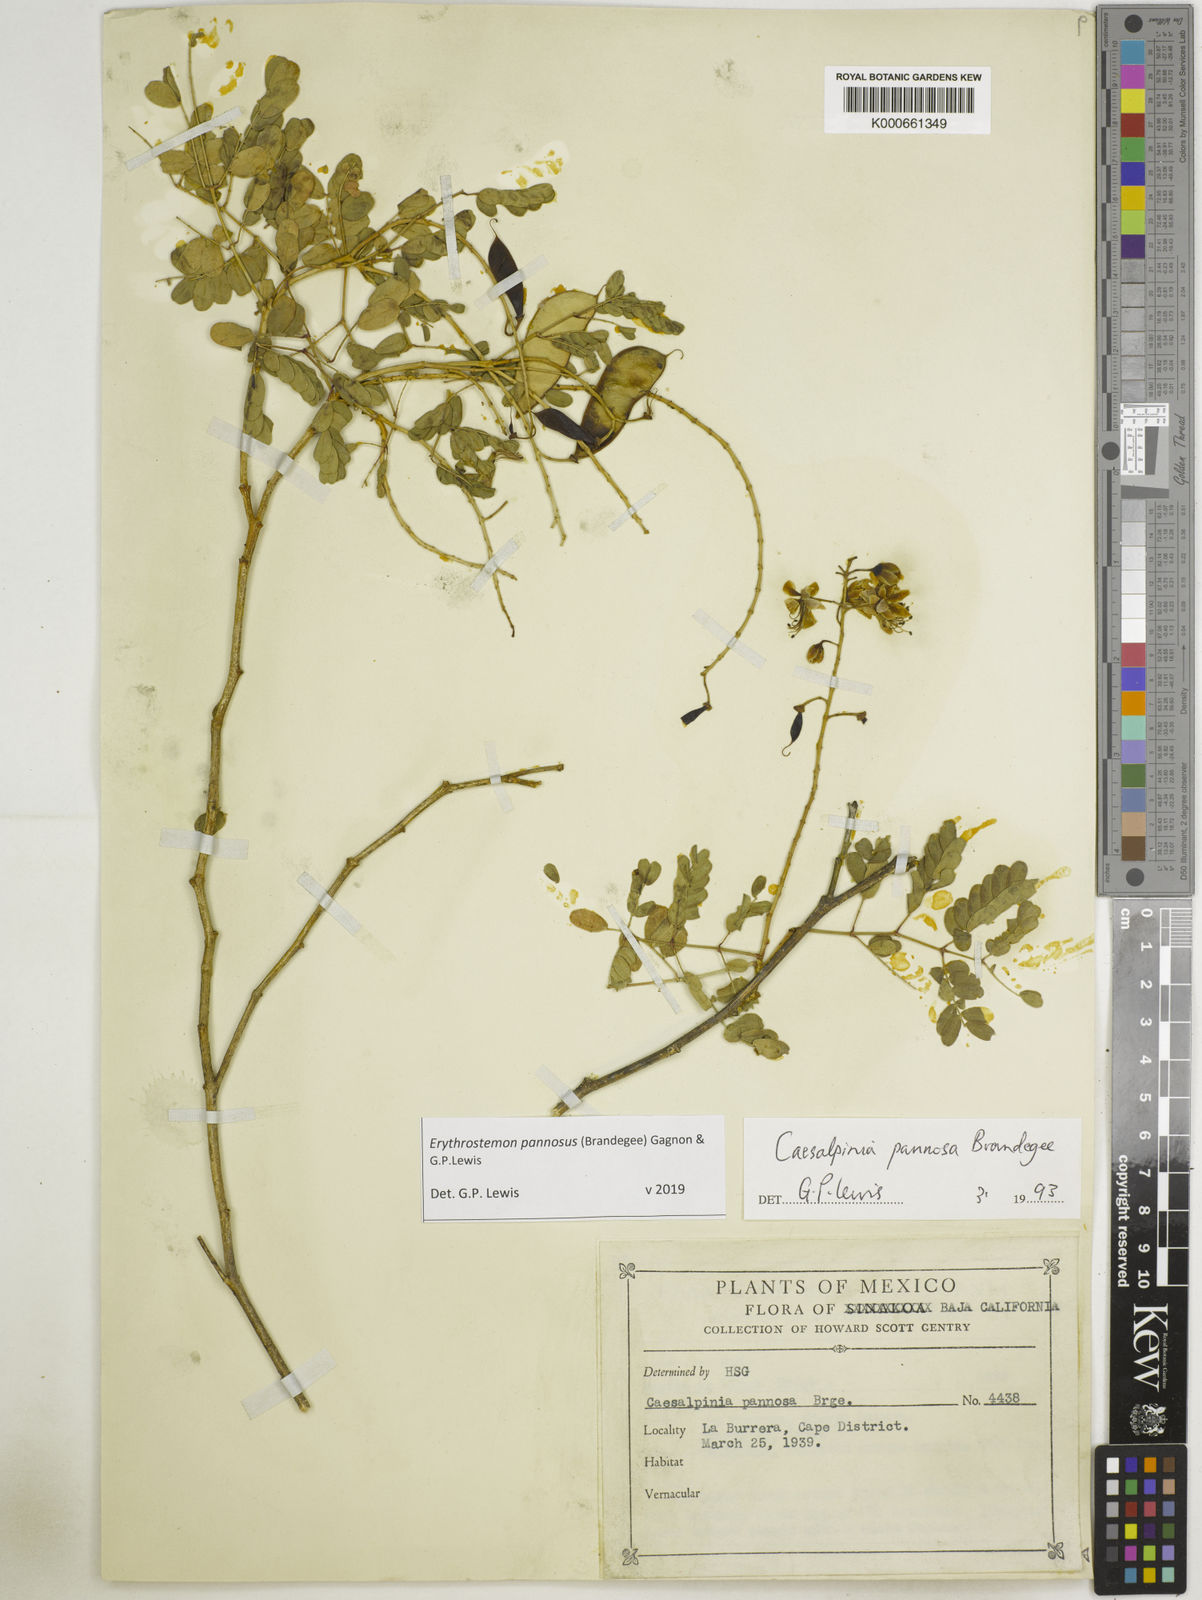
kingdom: Plantae
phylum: Tracheophyta
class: Magnoliopsida
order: Fabales
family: Fabaceae
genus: Erythrostemon
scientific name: Erythrostemon pannosus
